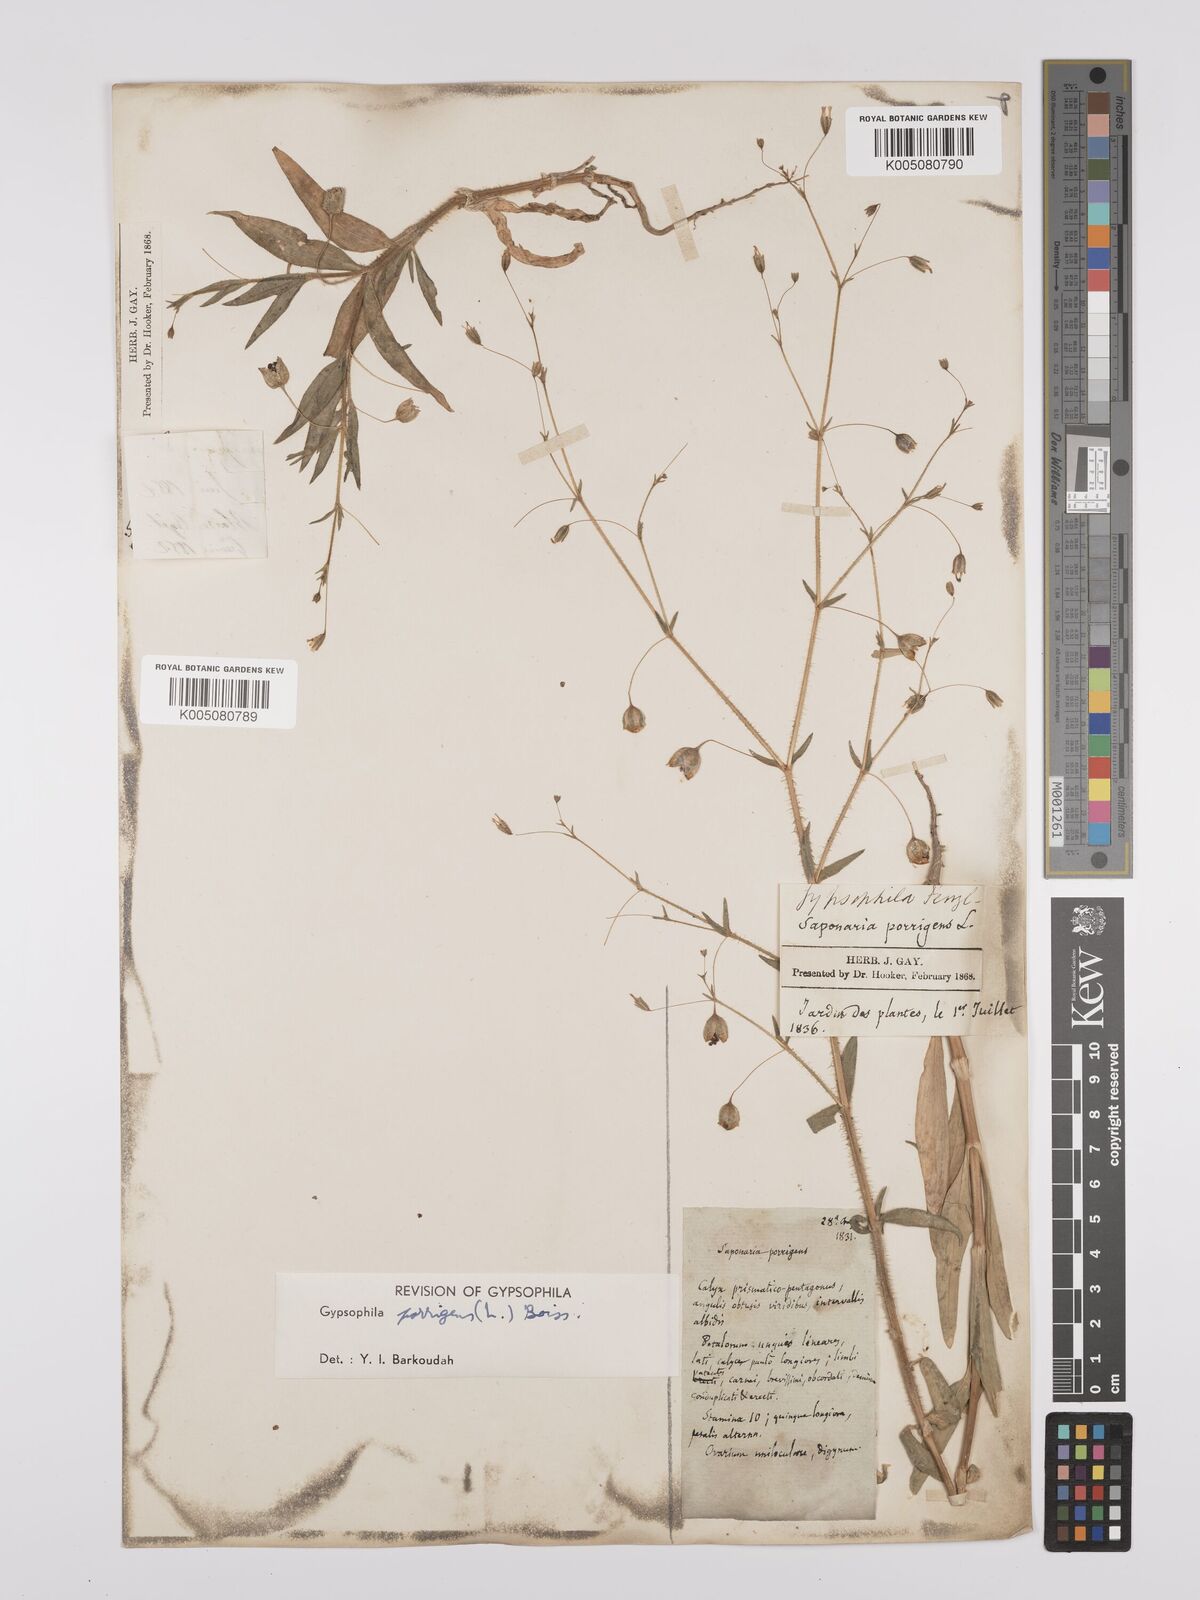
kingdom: Plantae
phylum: Tracheophyta
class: Magnoliopsida
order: Caryophyllales
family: Caryophyllaceae
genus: Gypsophila
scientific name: Gypsophila pilosa
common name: Turkish baby's-breath
